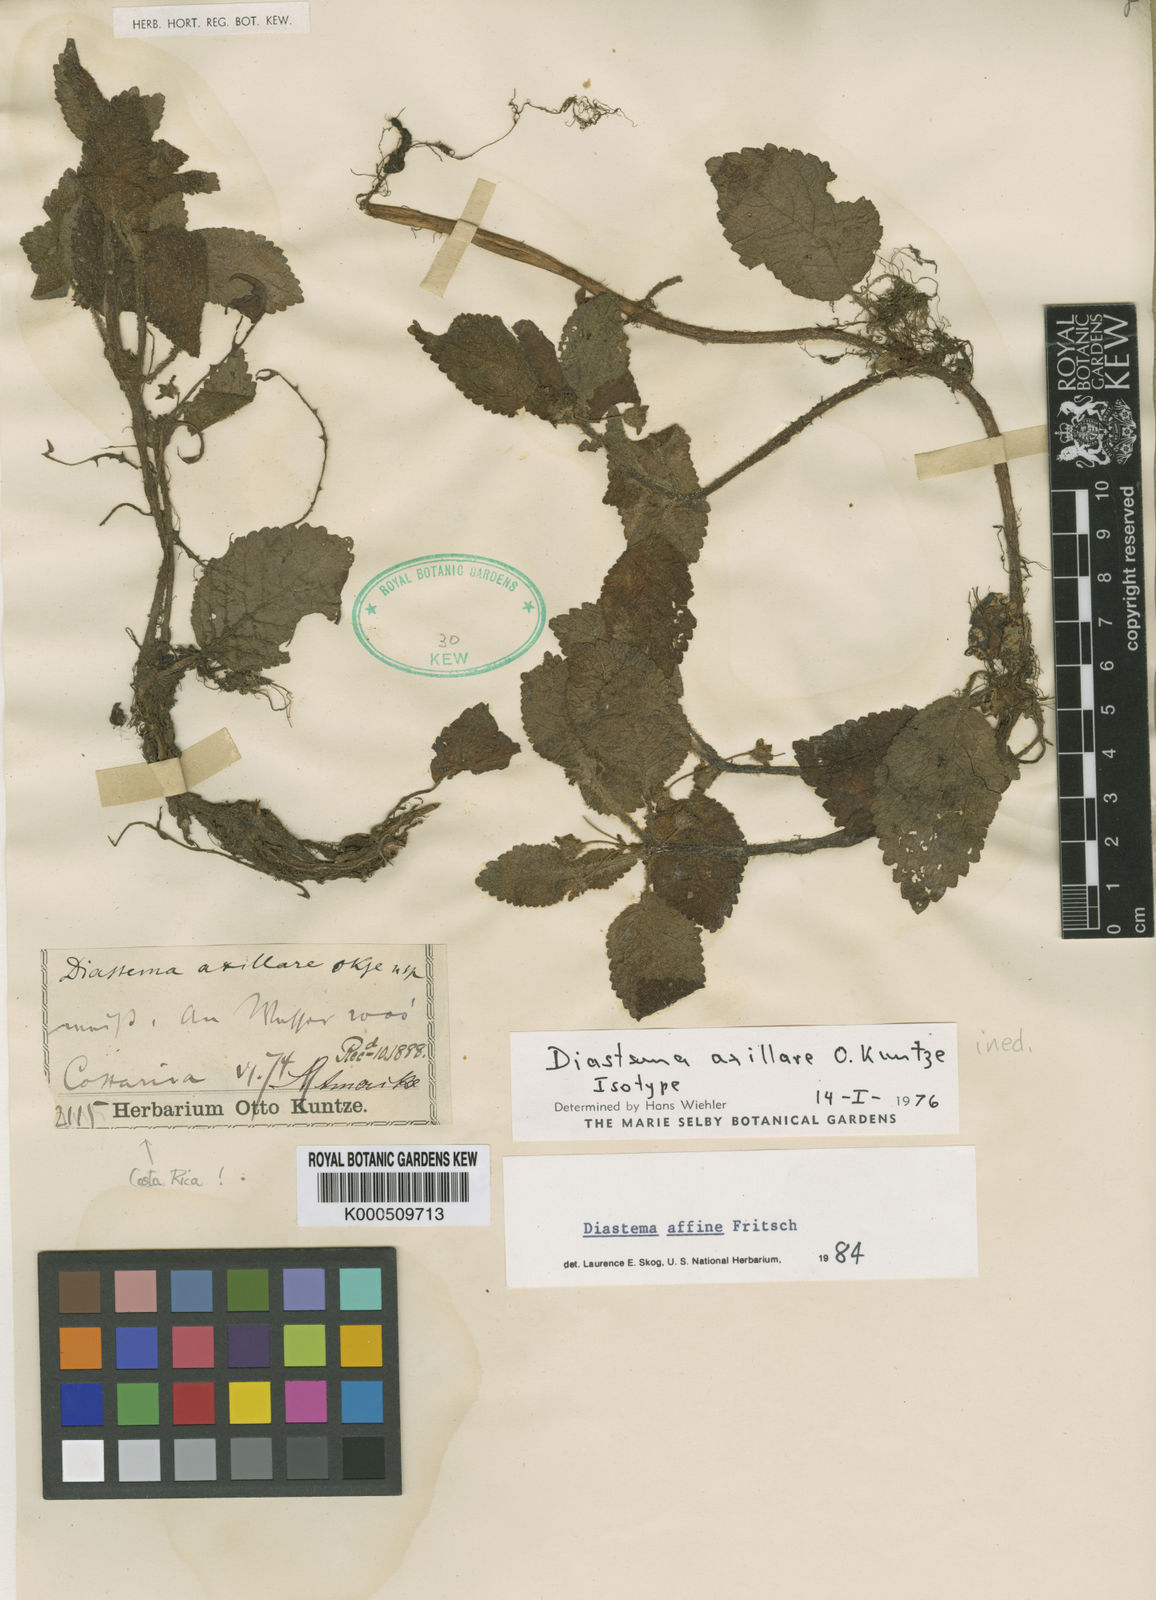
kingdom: Plantae
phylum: Tracheophyta
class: Magnoliopsida
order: Lamiales
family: Gesneriaceae
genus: Diastema
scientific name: Diastema affine
